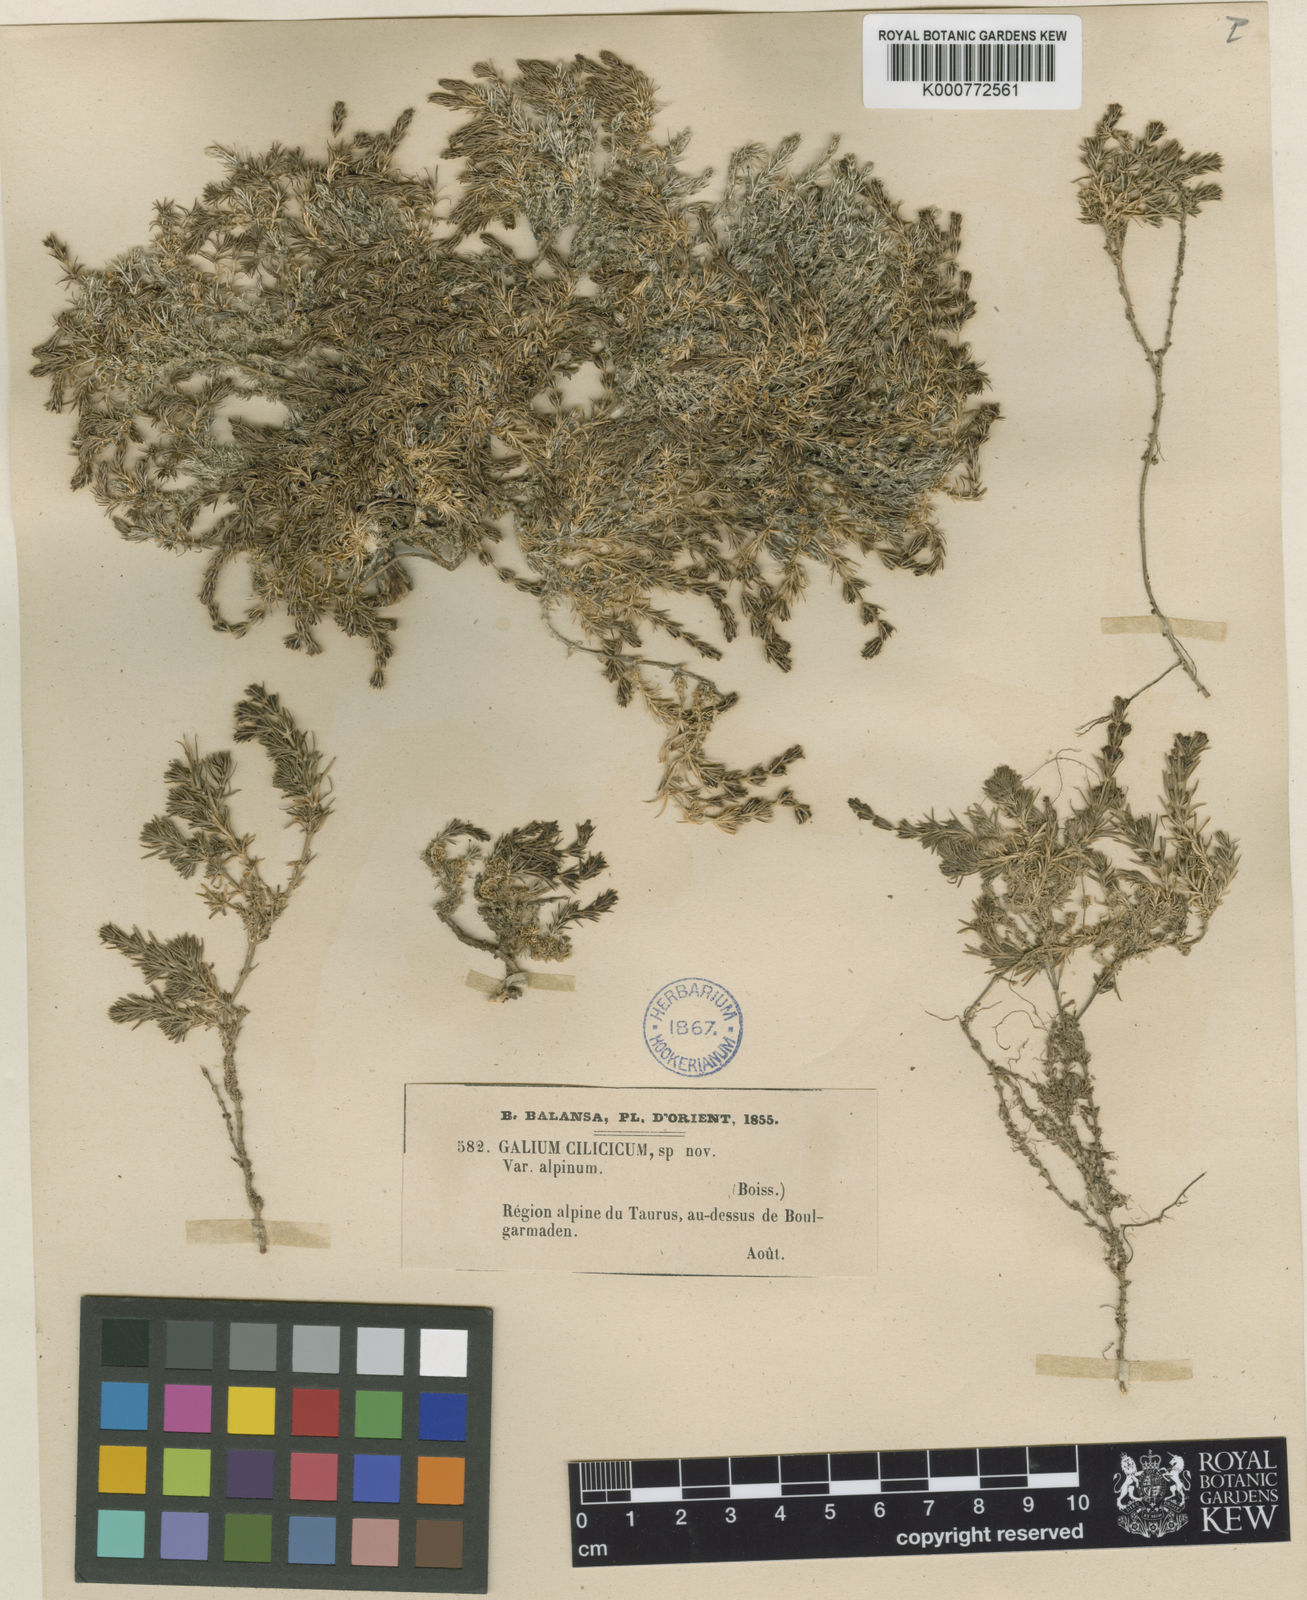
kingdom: Plantae
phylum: Tracheophyta
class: Magnoliopsida
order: Gentianales
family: Rubiaceae
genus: Galium
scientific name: Galium cilicicum
